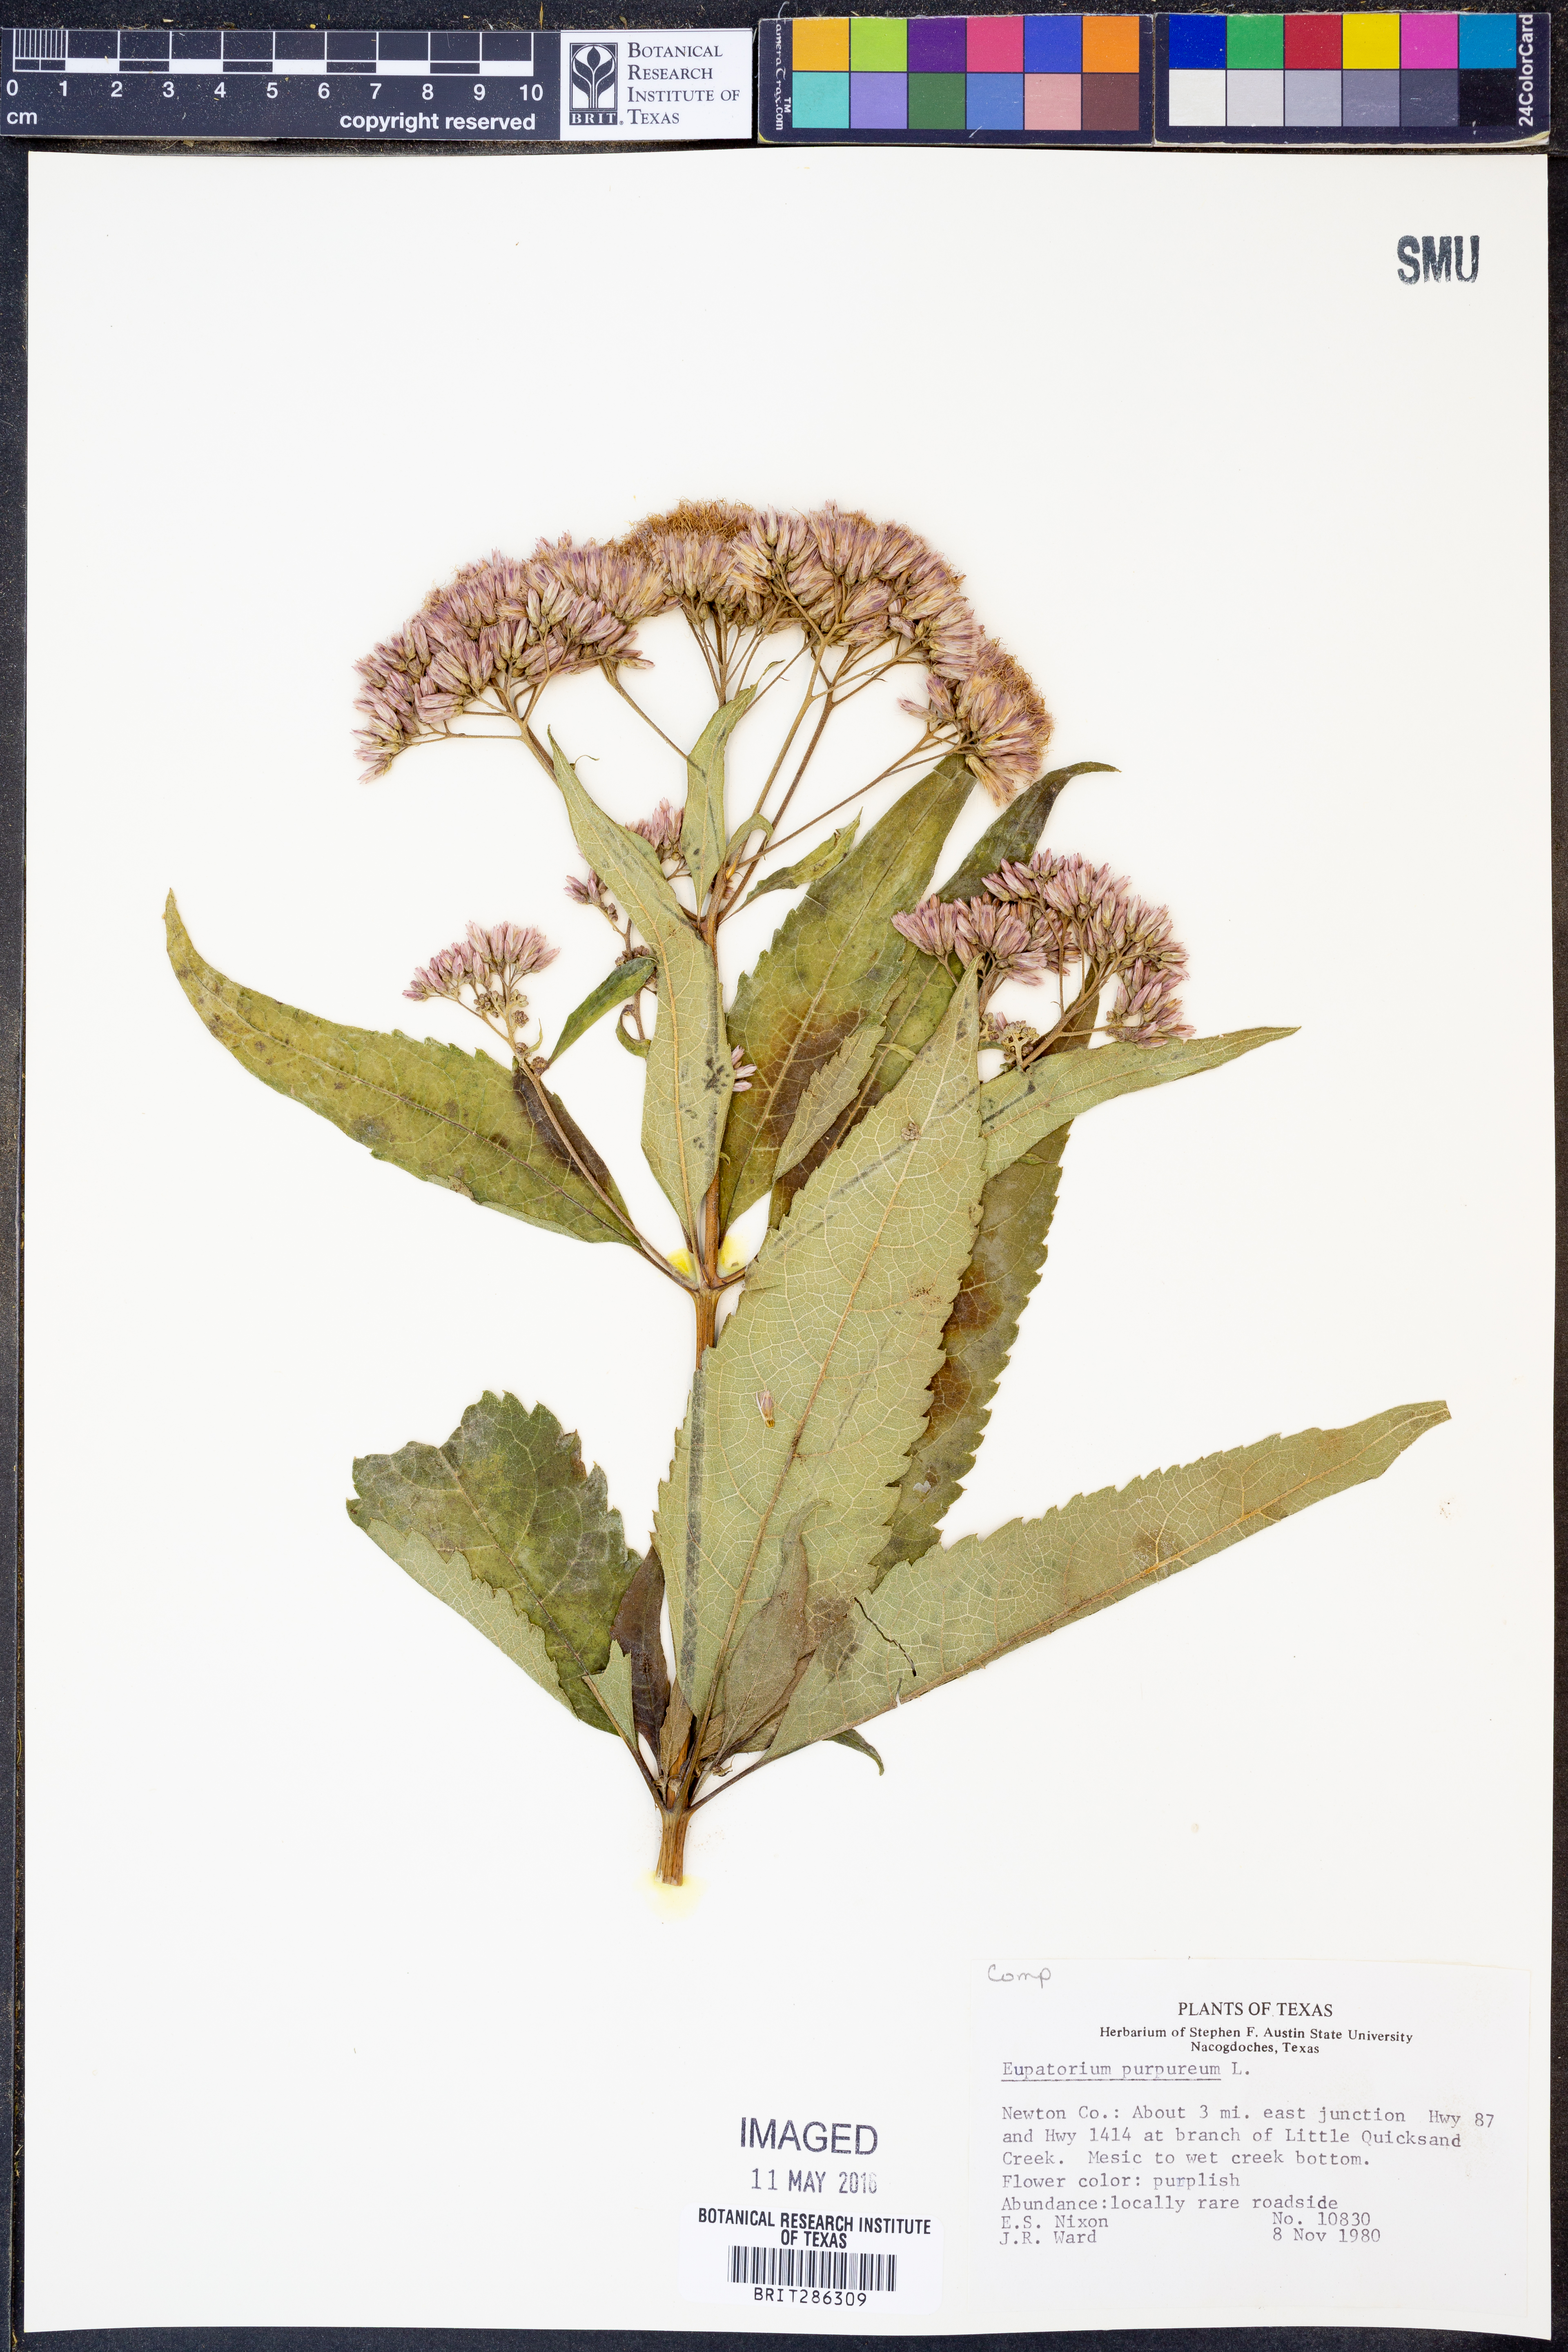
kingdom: Plantae
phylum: Tracheophyta
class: Magnoliopsida
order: Asterales
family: Asteraceae
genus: Eupatorium
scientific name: Eupatorium quaternum
